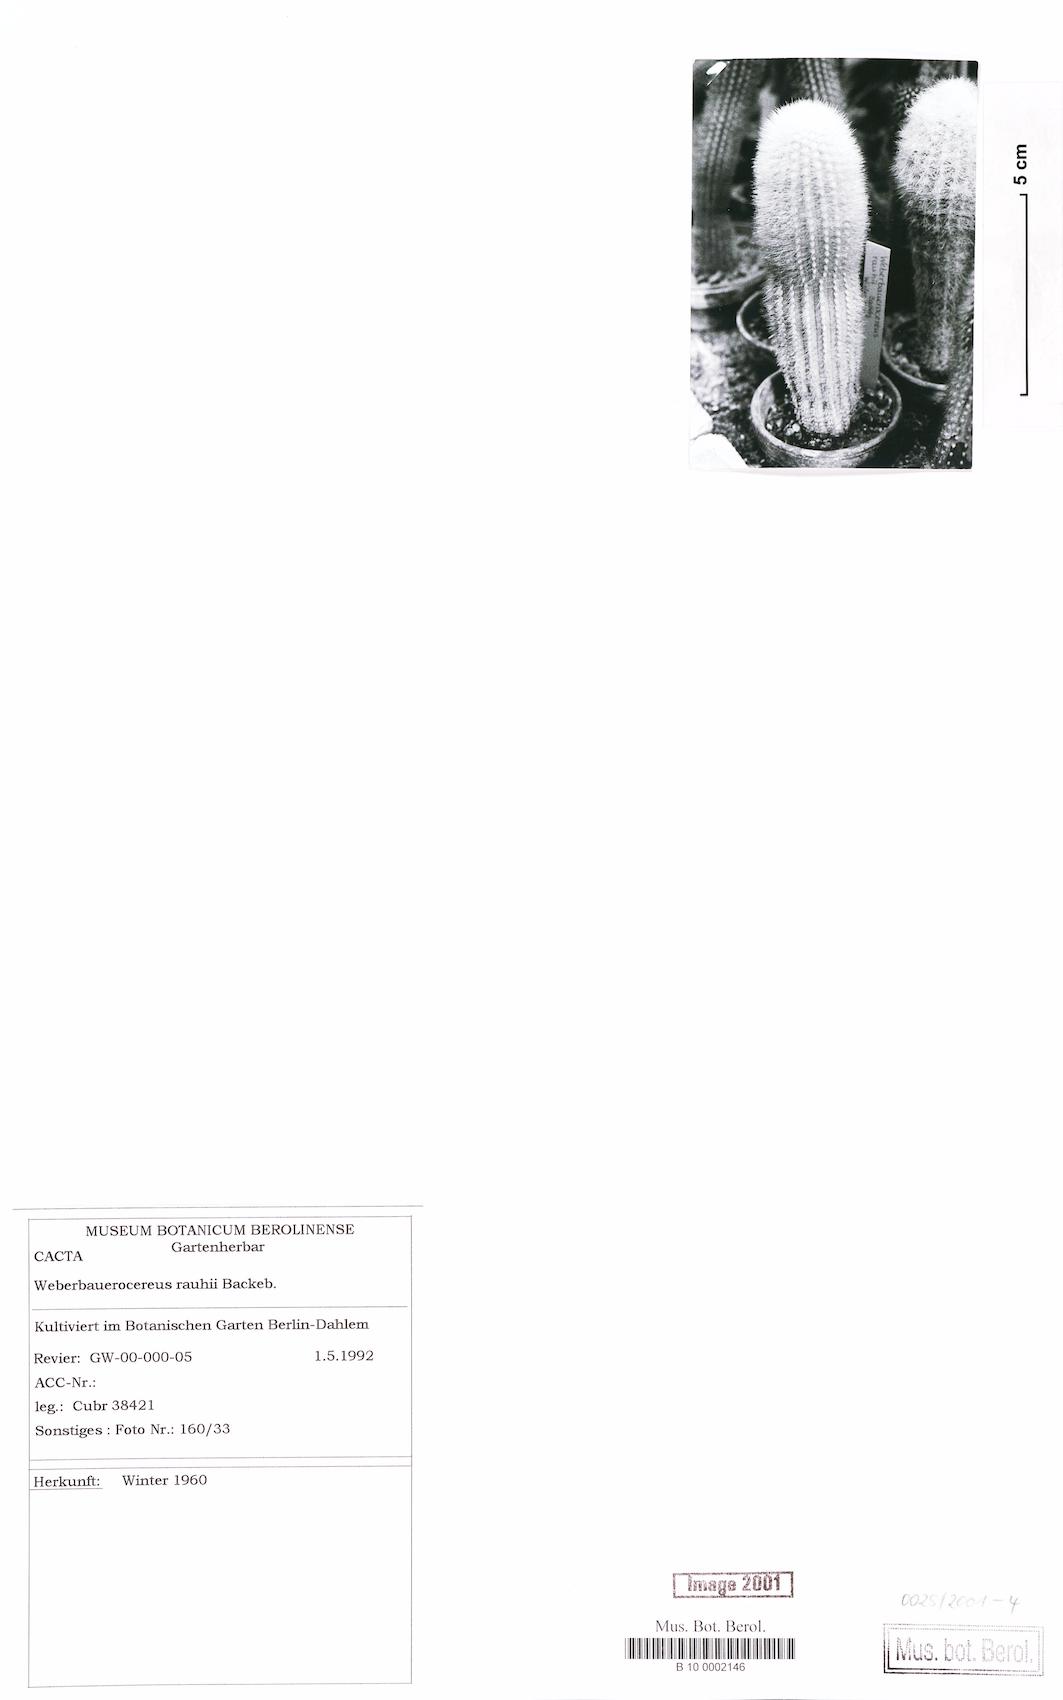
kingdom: Plantae
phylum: Tracheophyta
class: Magnoliopsida
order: Caryophyllales
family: Cactaceae
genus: Weberbauerocereus
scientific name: Weberbauerocereus rauhii
